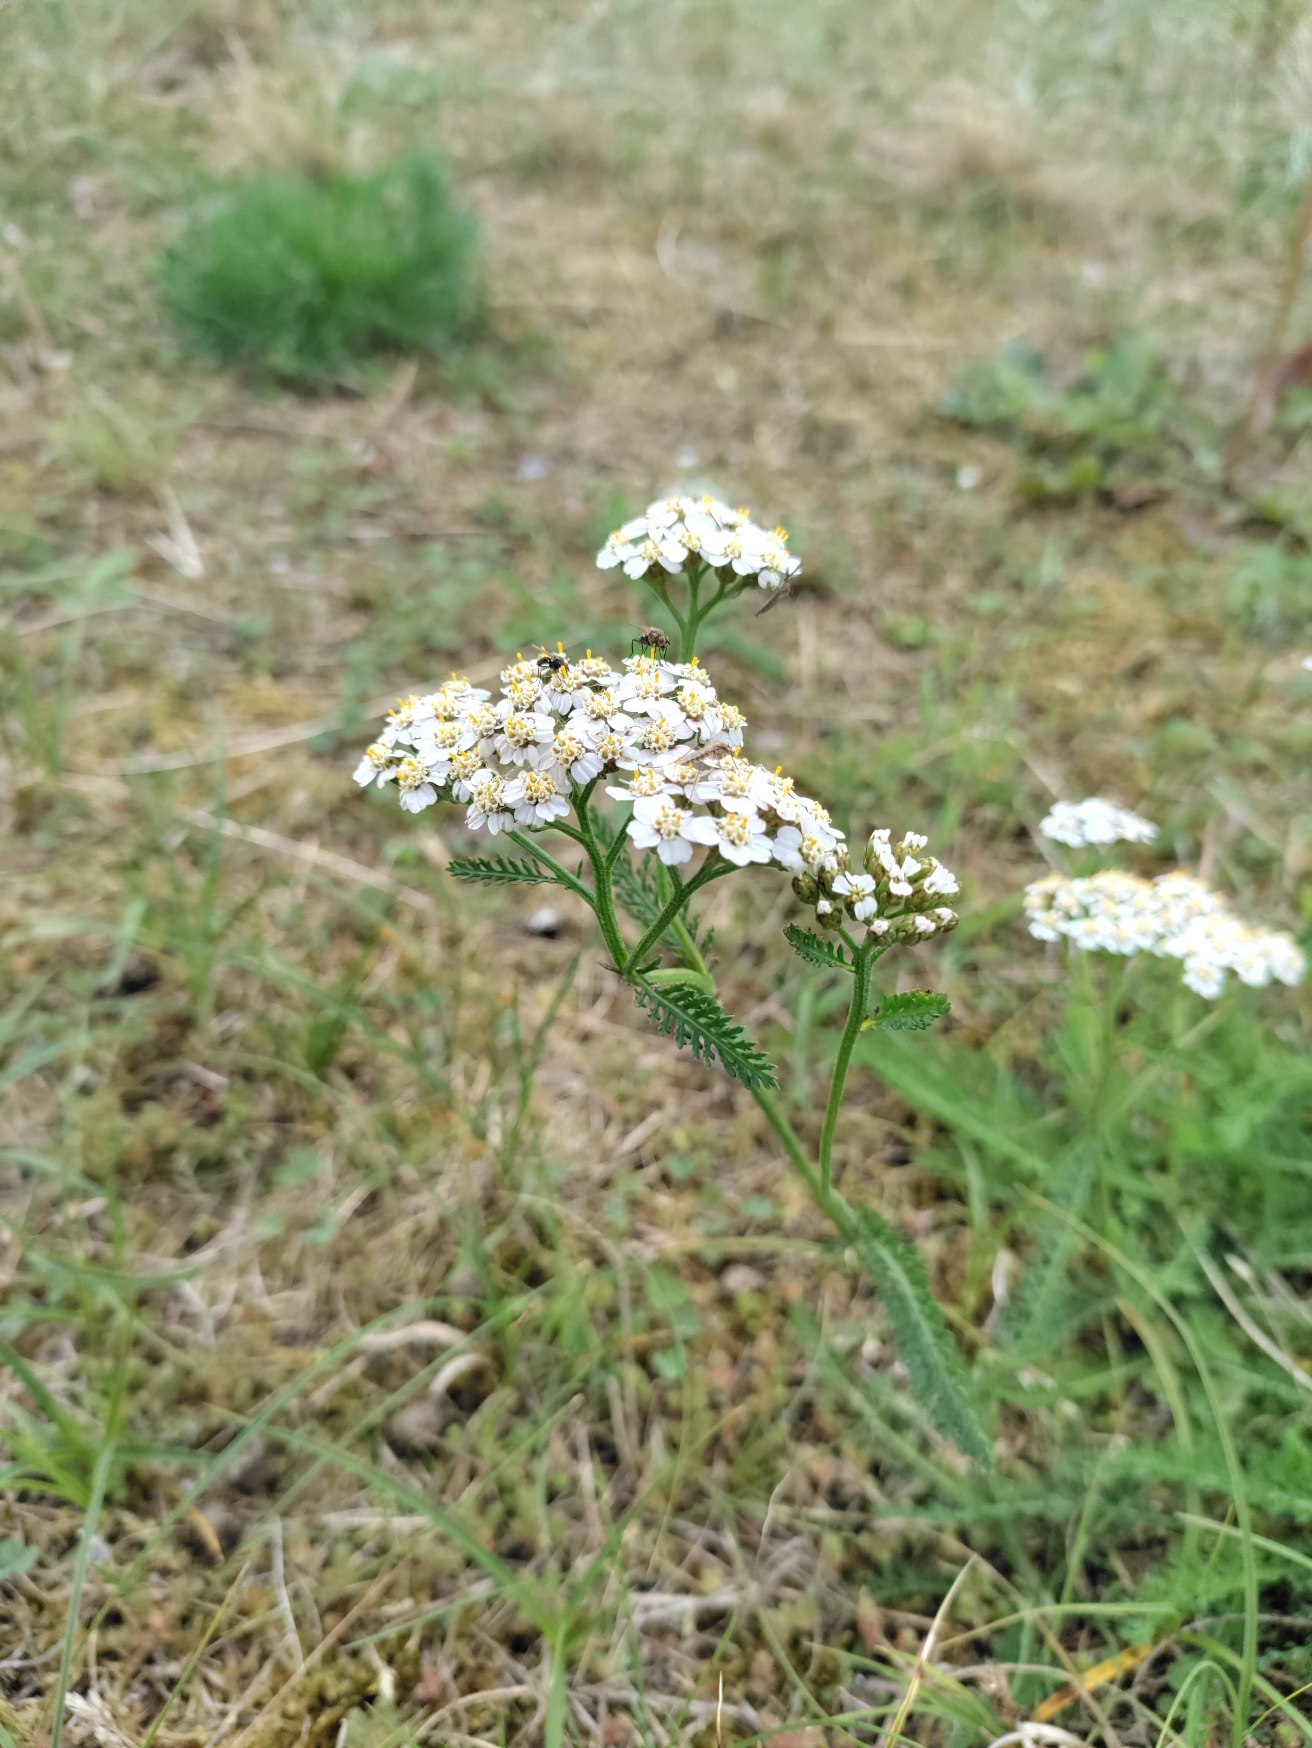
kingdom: Plantae
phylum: Tracheophyta
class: Magnoliopsida
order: Asterales
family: Asteraceae
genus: Achillea
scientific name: Achillea millefolium
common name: Almindelig røllike
